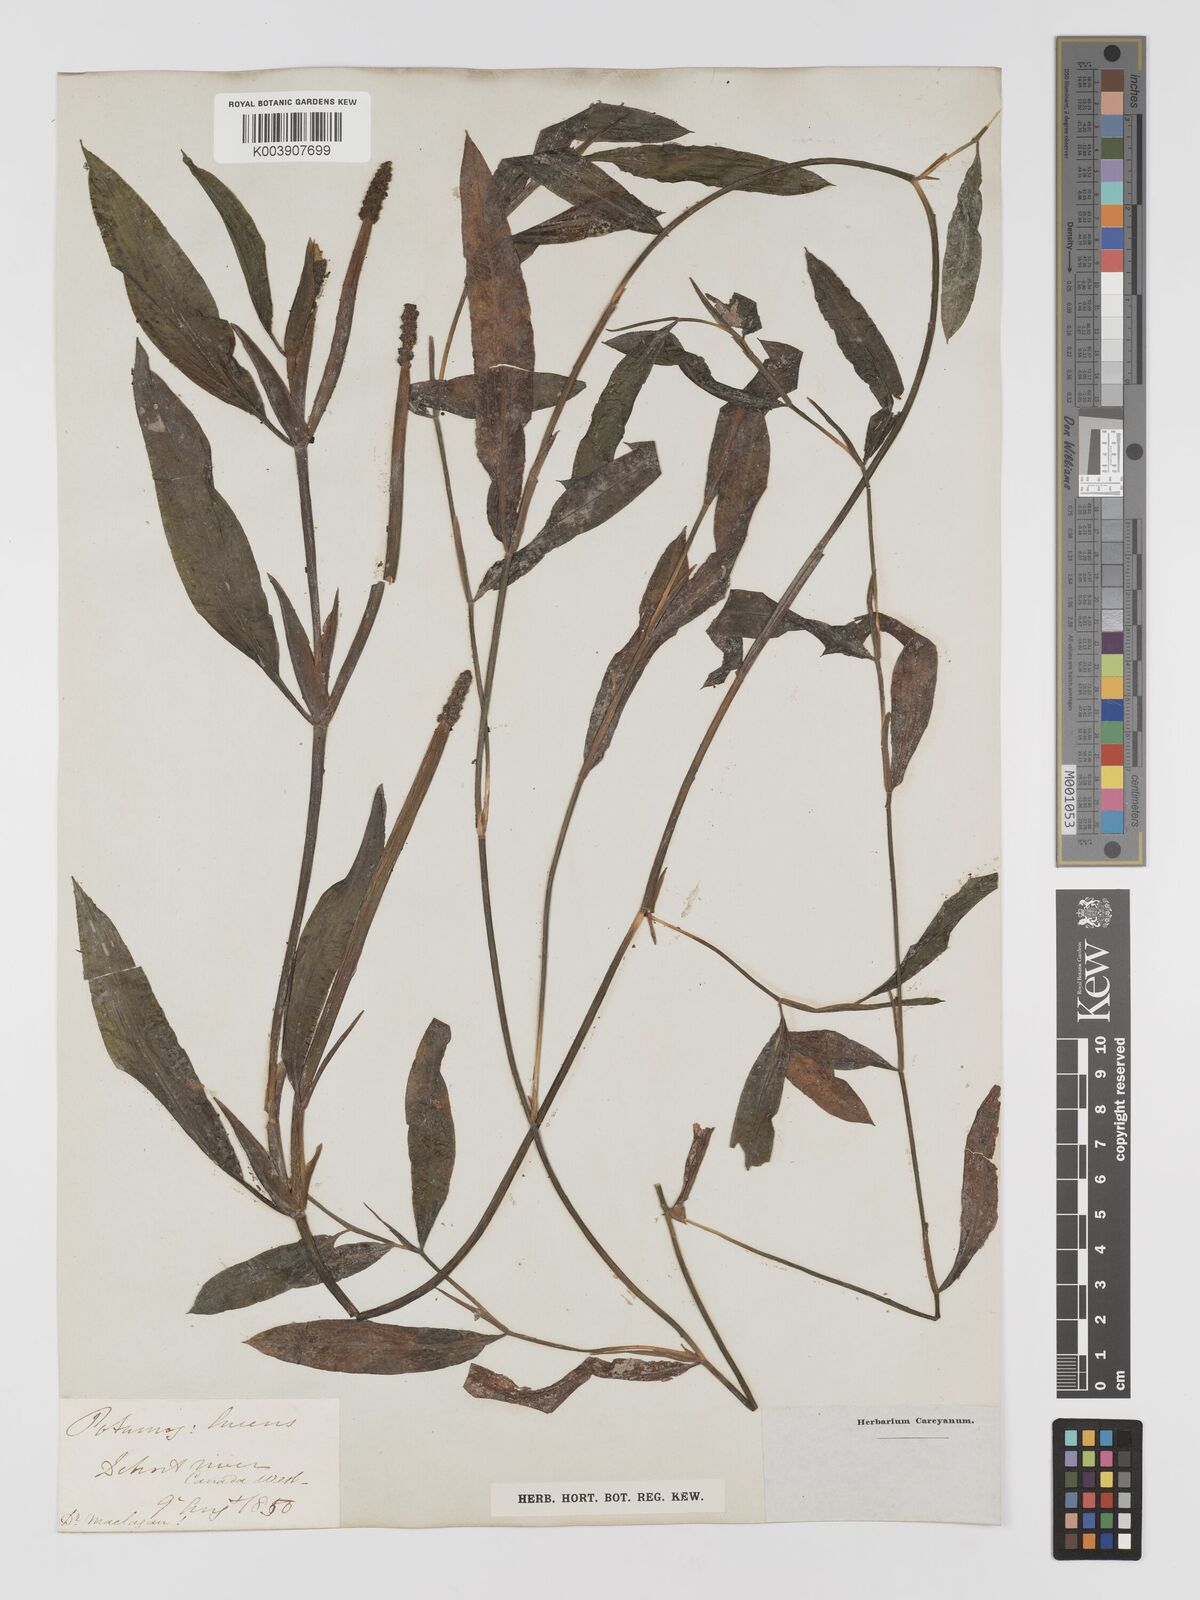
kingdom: Plantae
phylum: Tracheophyta
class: Liliopsida
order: Alismatales
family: Potamogetonaceae
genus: Potamogeton
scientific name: Potamogeton lucens
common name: Shining pondweed
